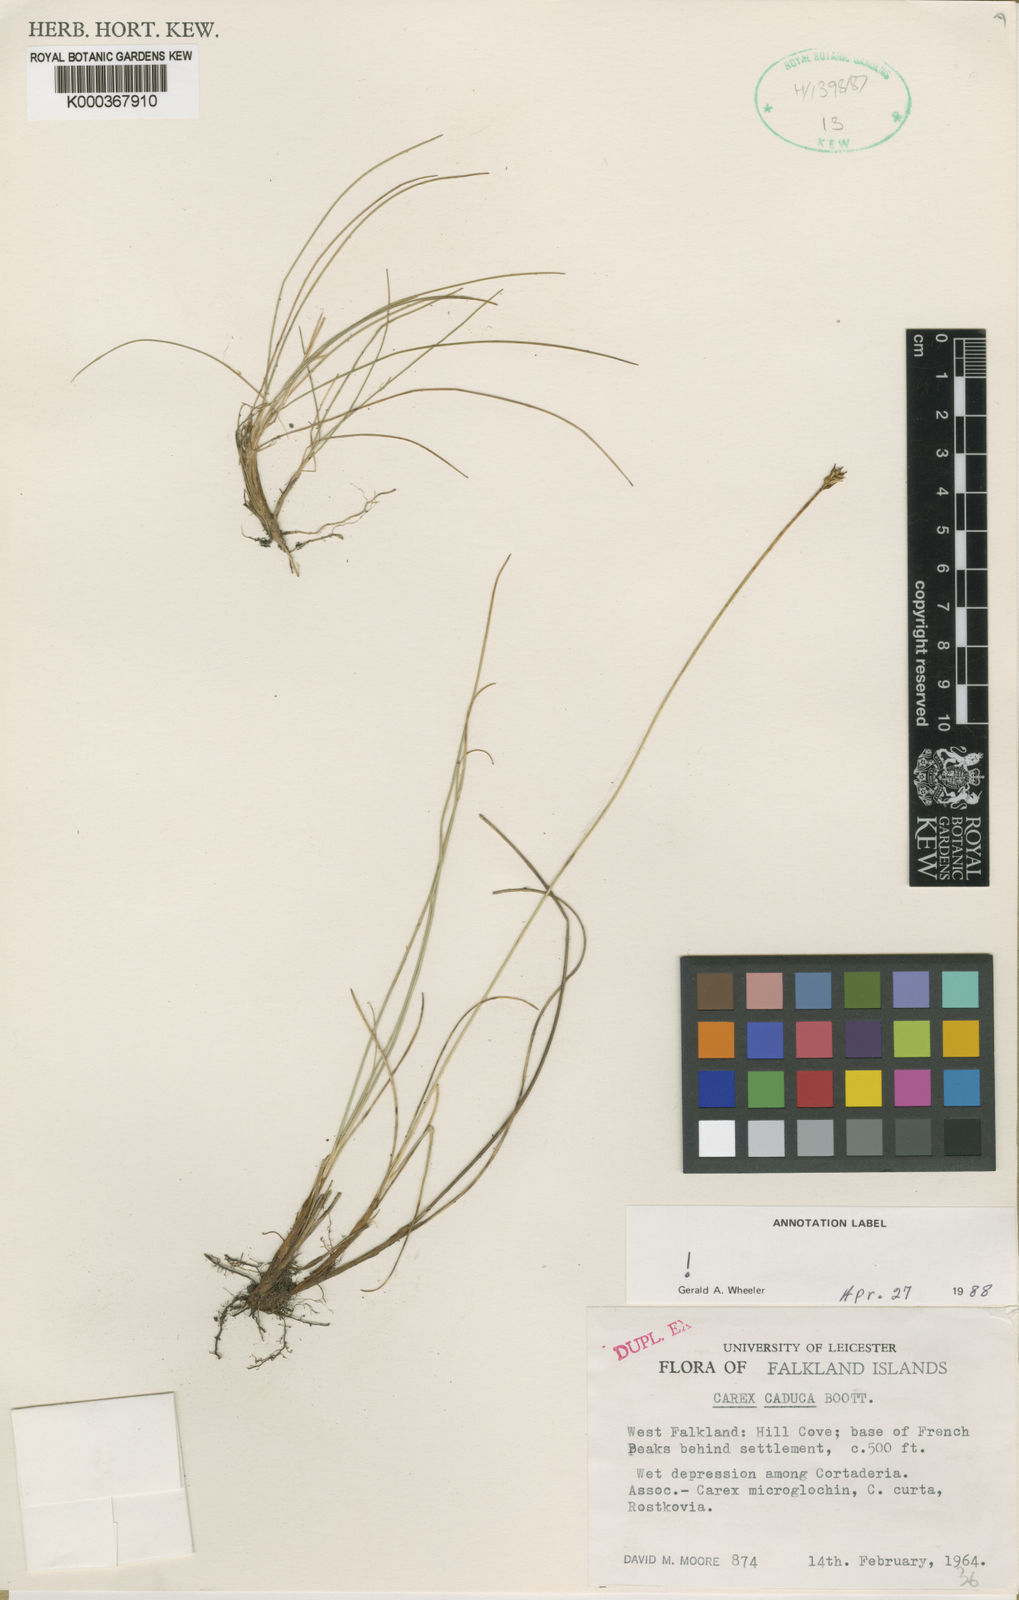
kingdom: Plantae
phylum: Tracheophyta
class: Liliopsida
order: Poales
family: Cyperaceae
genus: Carex
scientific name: Carex caduca
